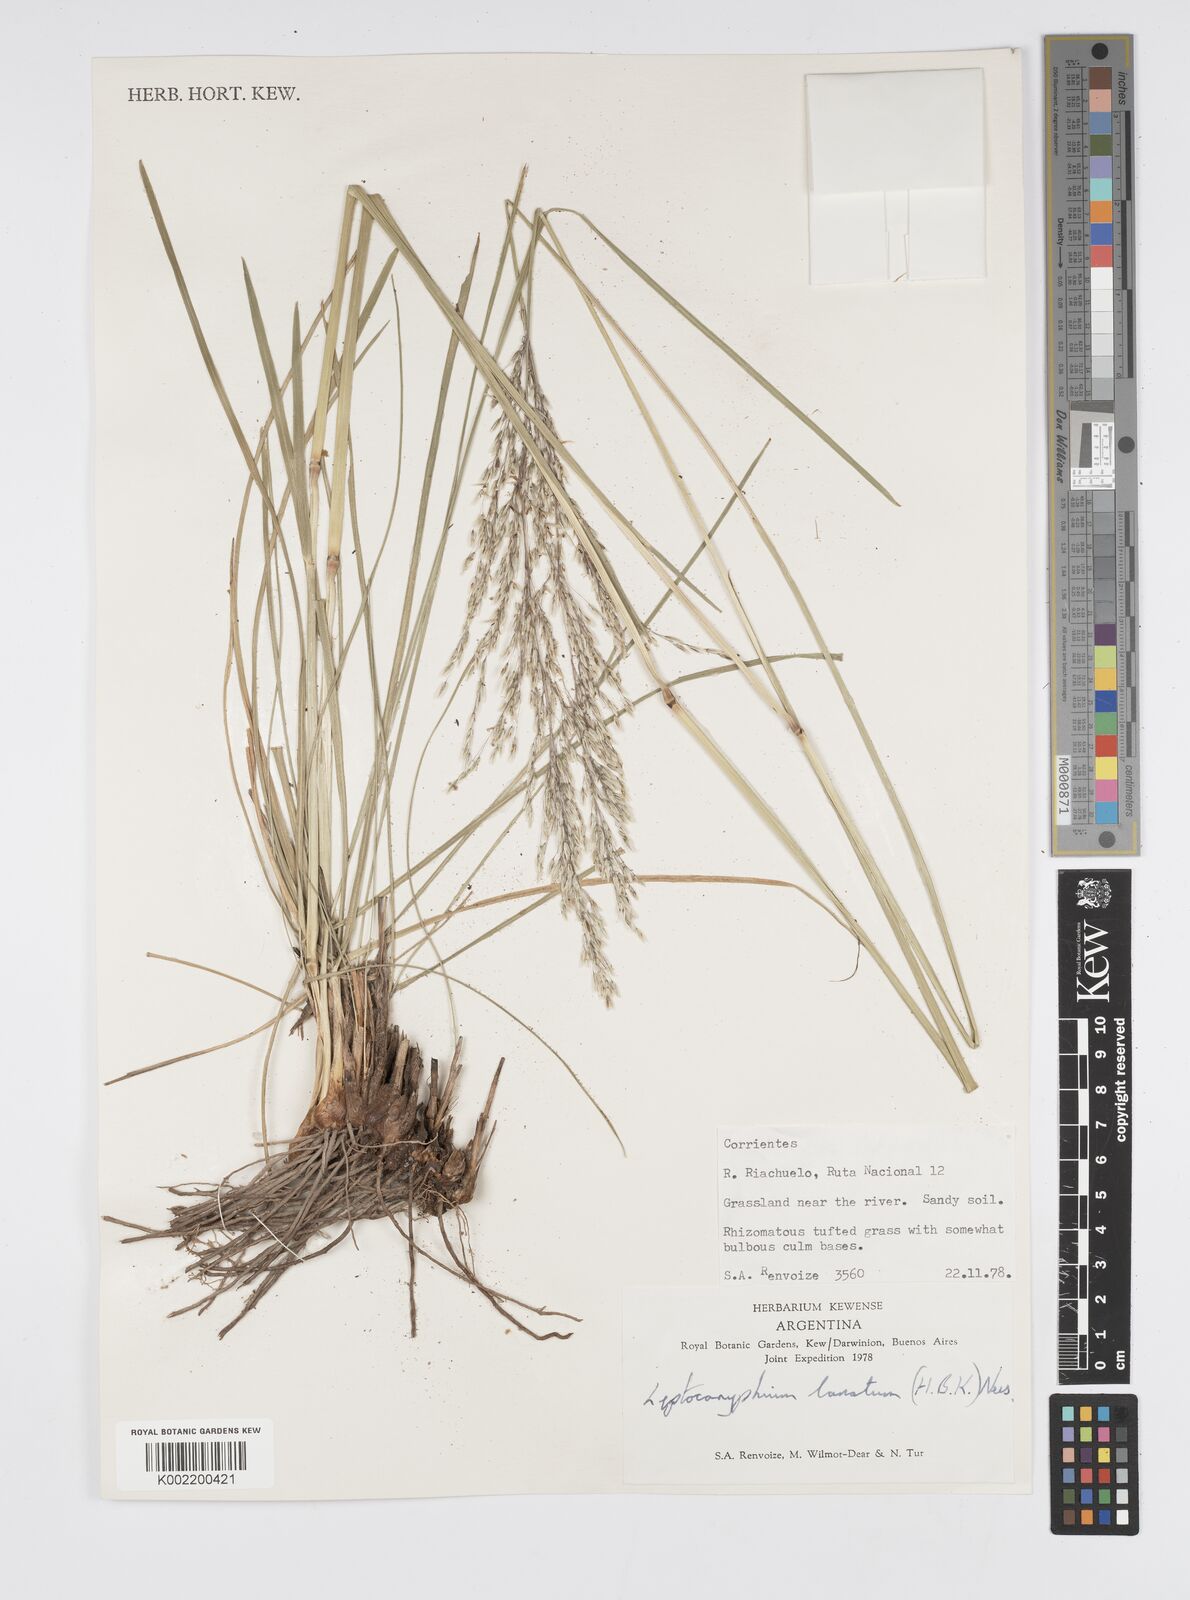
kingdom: Plantae
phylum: Tracheophyta
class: Liliopsida
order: Poales
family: Poaceae
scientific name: Poaceae
